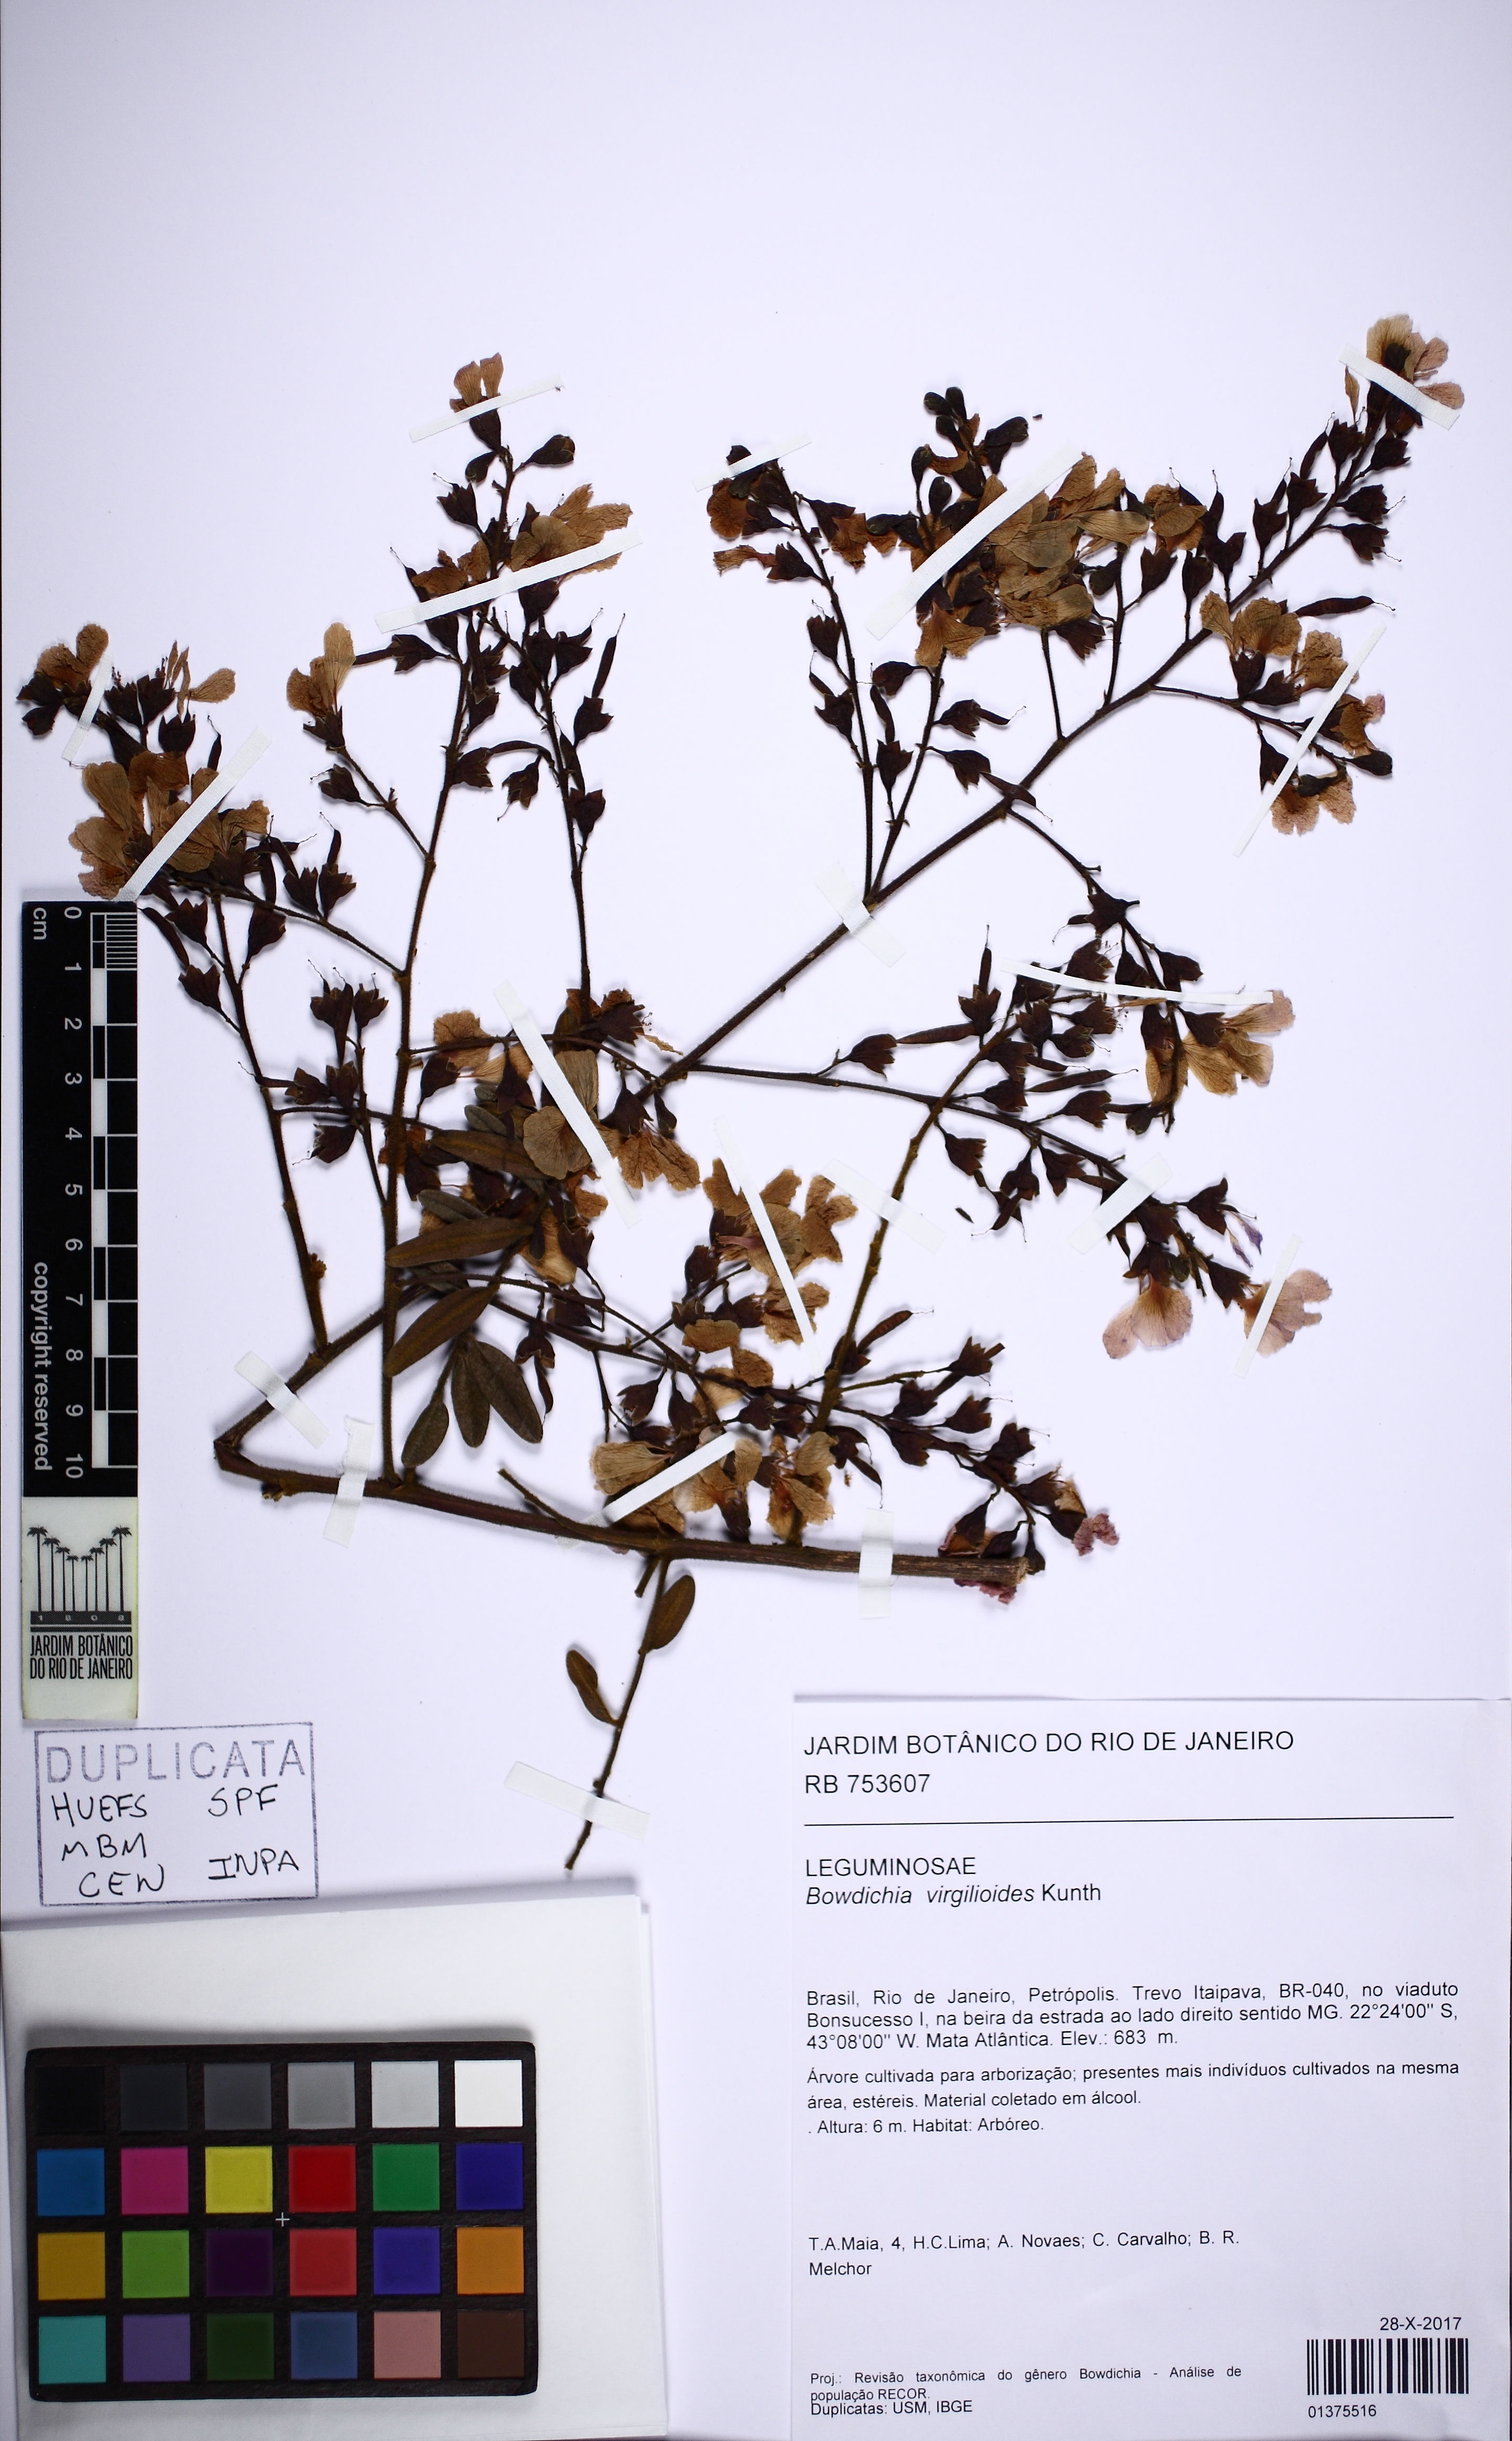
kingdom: Plantae
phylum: Tracheophyta
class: Magnoliopsida
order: Fabales
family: Fabaceae
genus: Bowdichia
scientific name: Bowdichia virgilioides
